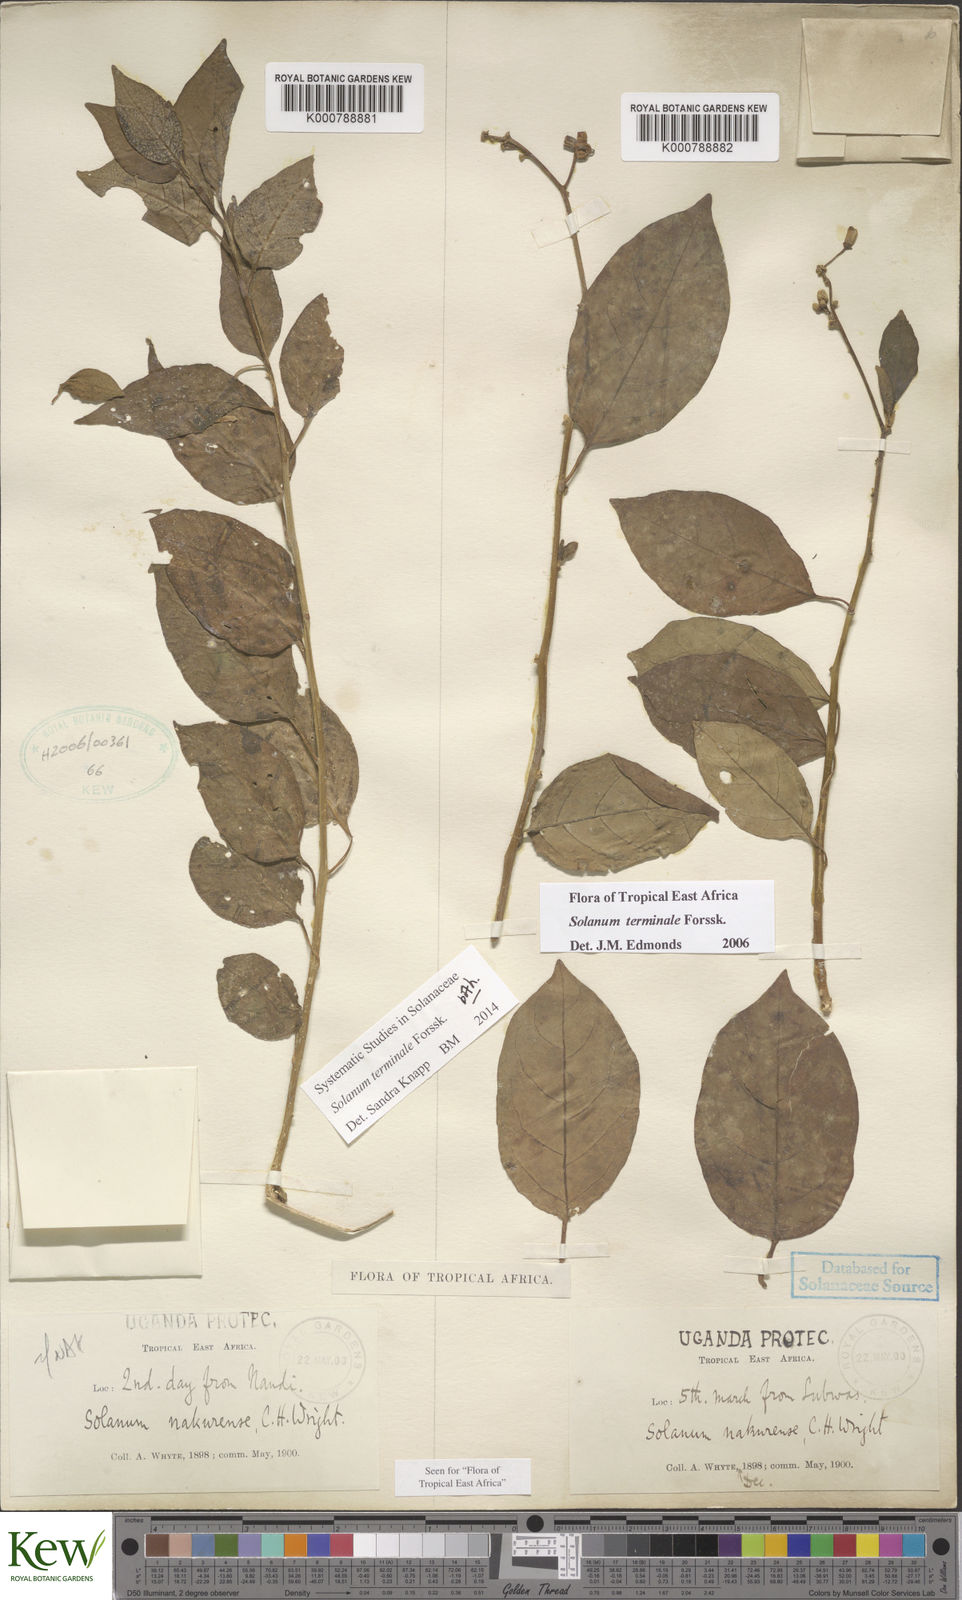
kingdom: Plantae
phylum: Tracheophyta
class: Magnoliopsida
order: Solanales
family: Solanaceae
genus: Solanum
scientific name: Solanum terminale
